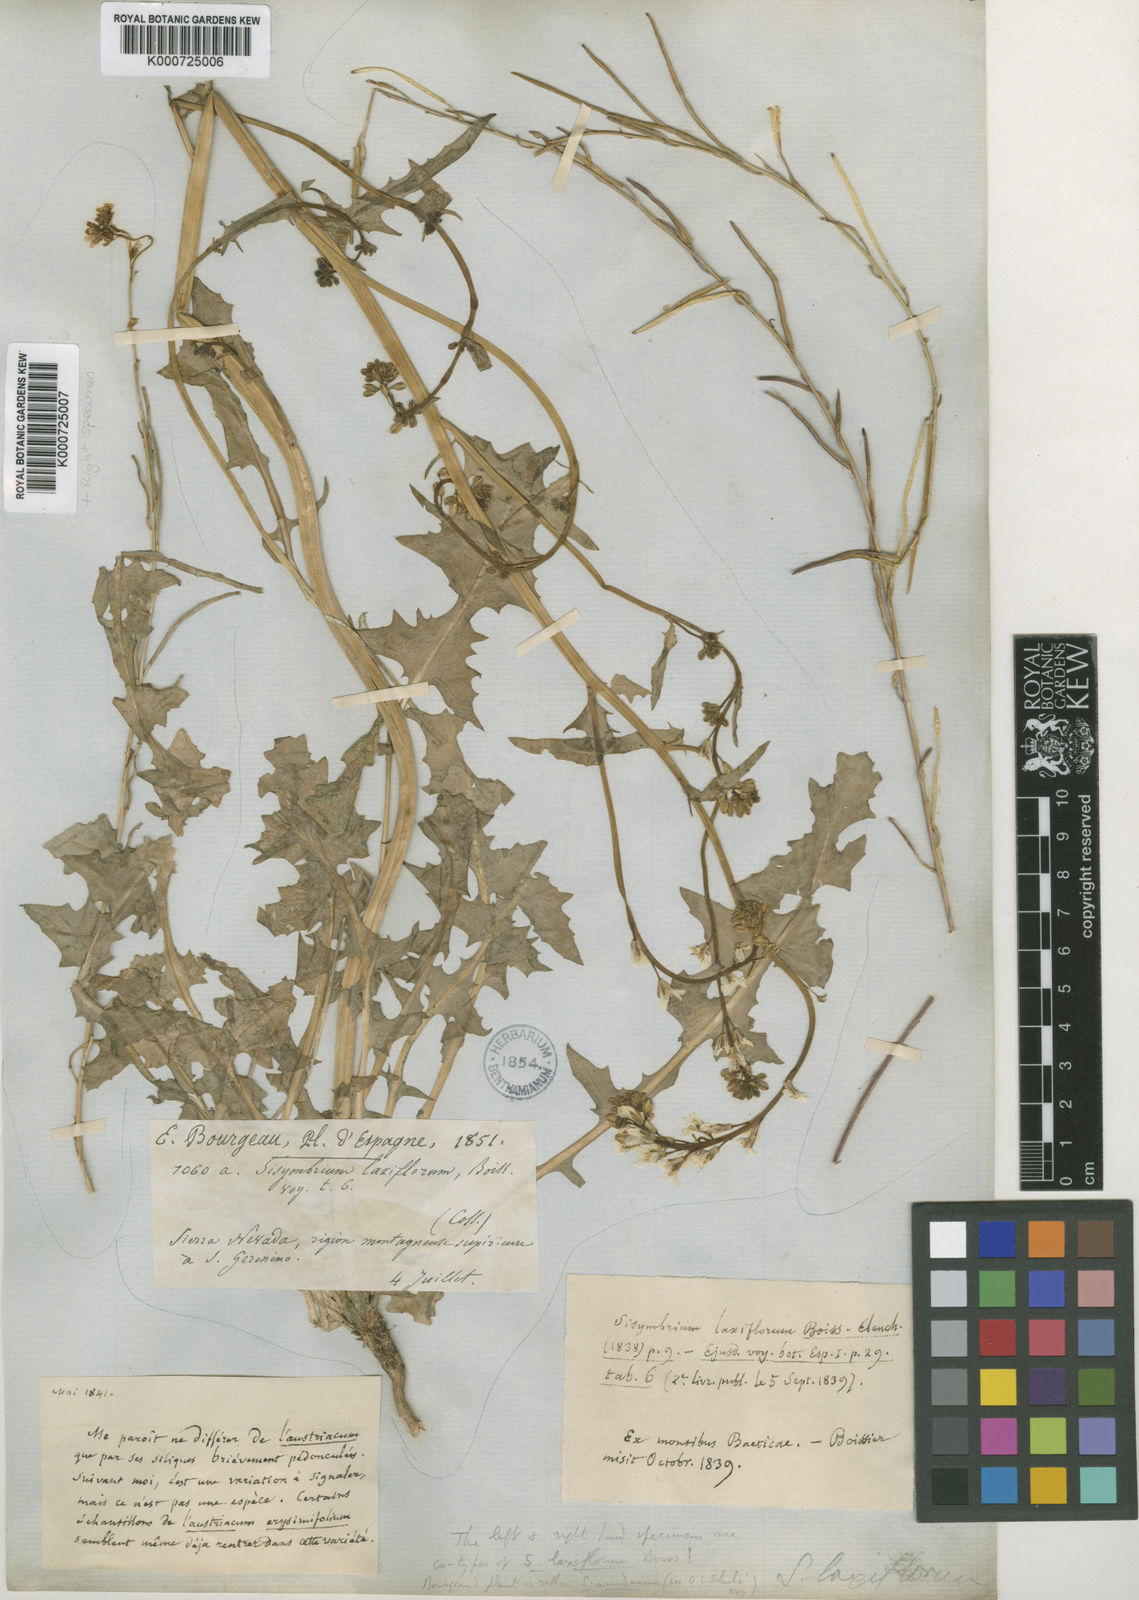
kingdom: Plantae
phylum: Tracheophyta
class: Magnoliopsida
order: Brassicales
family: Brassicaceae
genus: Sisymbrium
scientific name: Sisymbrium crassifolium
